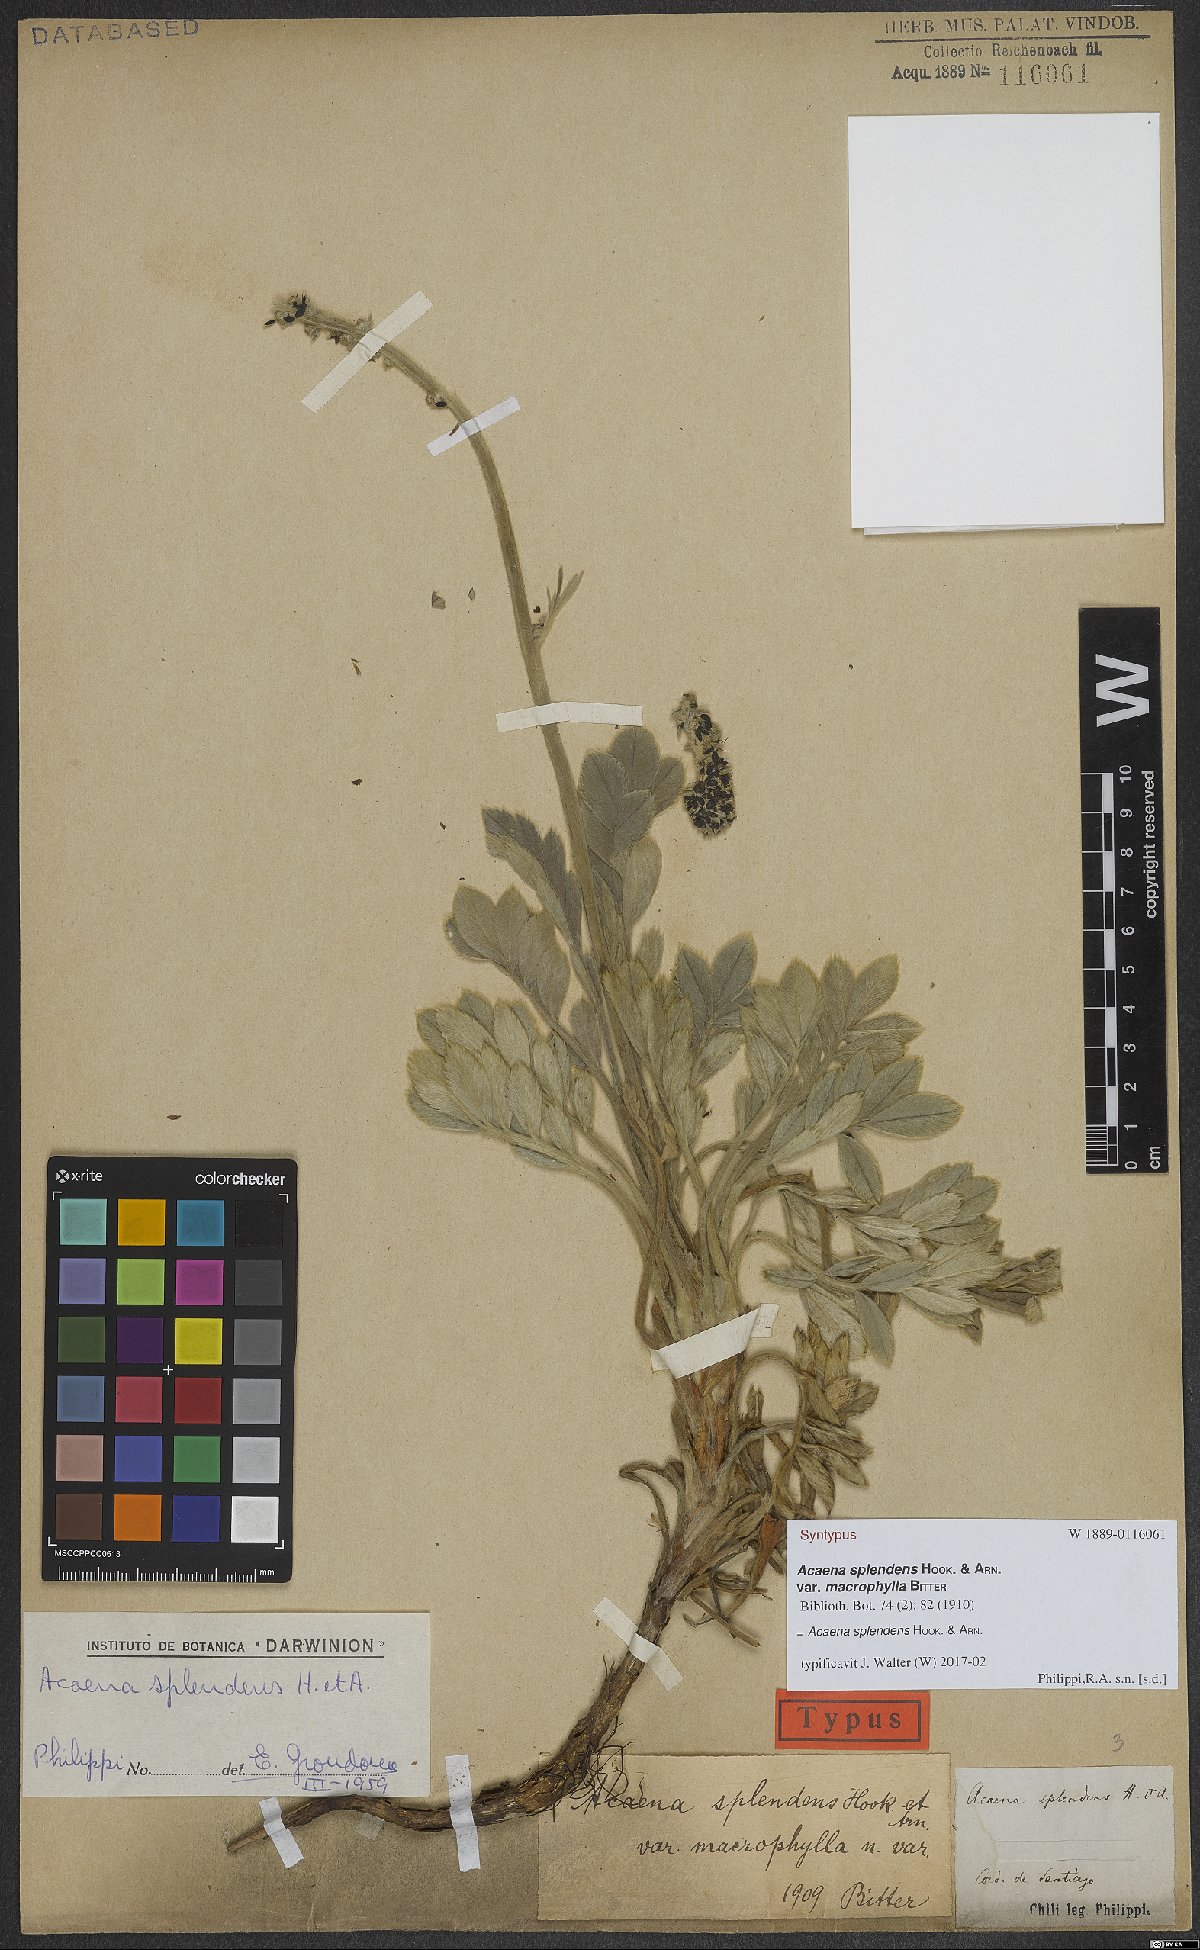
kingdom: Plantae
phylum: Tracheophyta
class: Magnoliopsida
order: Rosales
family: Rosaceae
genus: Acaena
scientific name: Acaena splendens
